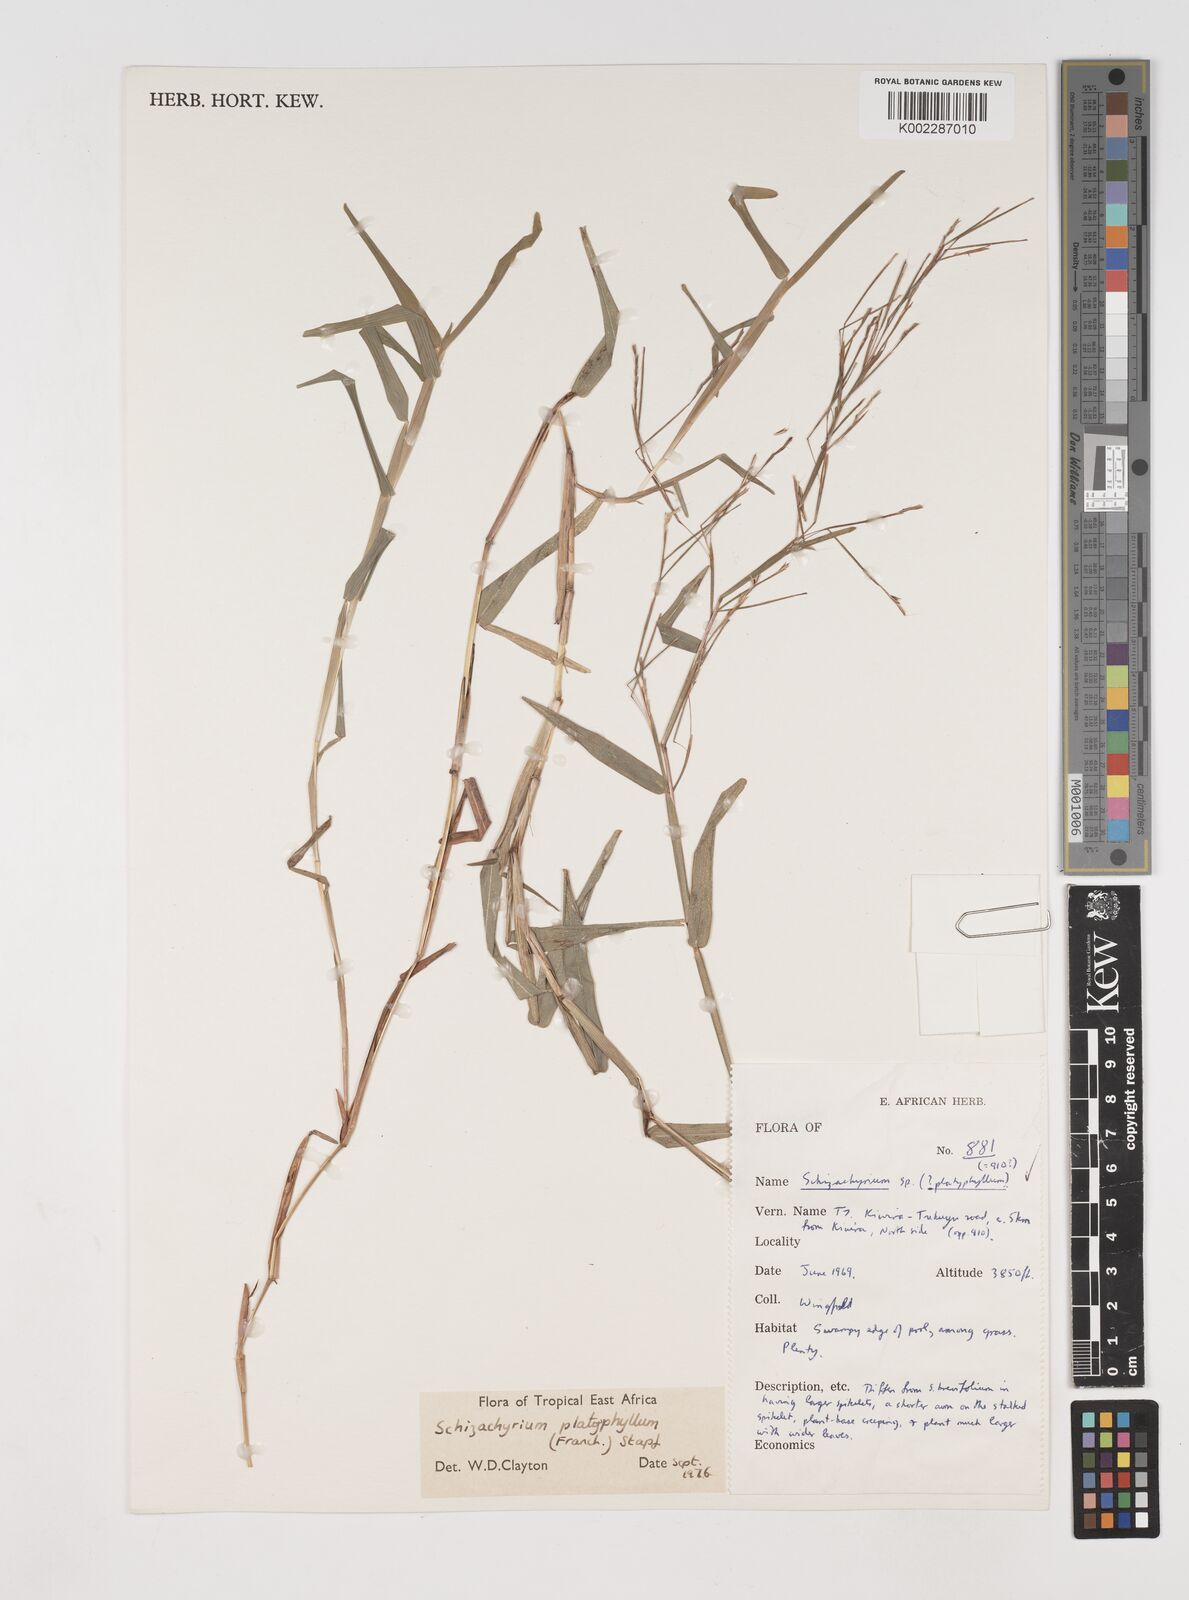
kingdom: Plantae
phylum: Tracheophyta
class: Liliopsida
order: Poales
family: Poaceae
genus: Schizachyrium
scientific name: Schizachyrium platyphyllum
